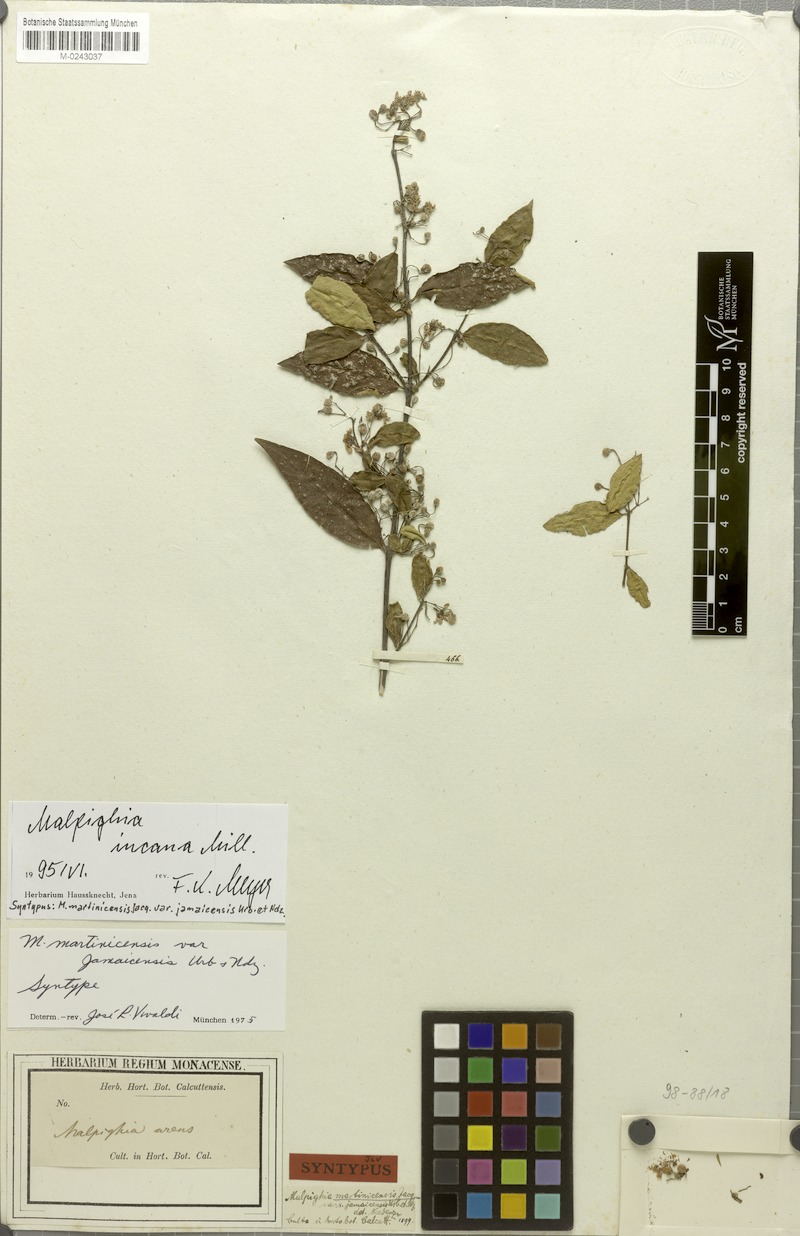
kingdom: Plantae
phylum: Tracheophyta
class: Magnoliopsida
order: Malpighiales
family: Malpighiaceae
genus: Malpighia
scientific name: Malpighia incana
